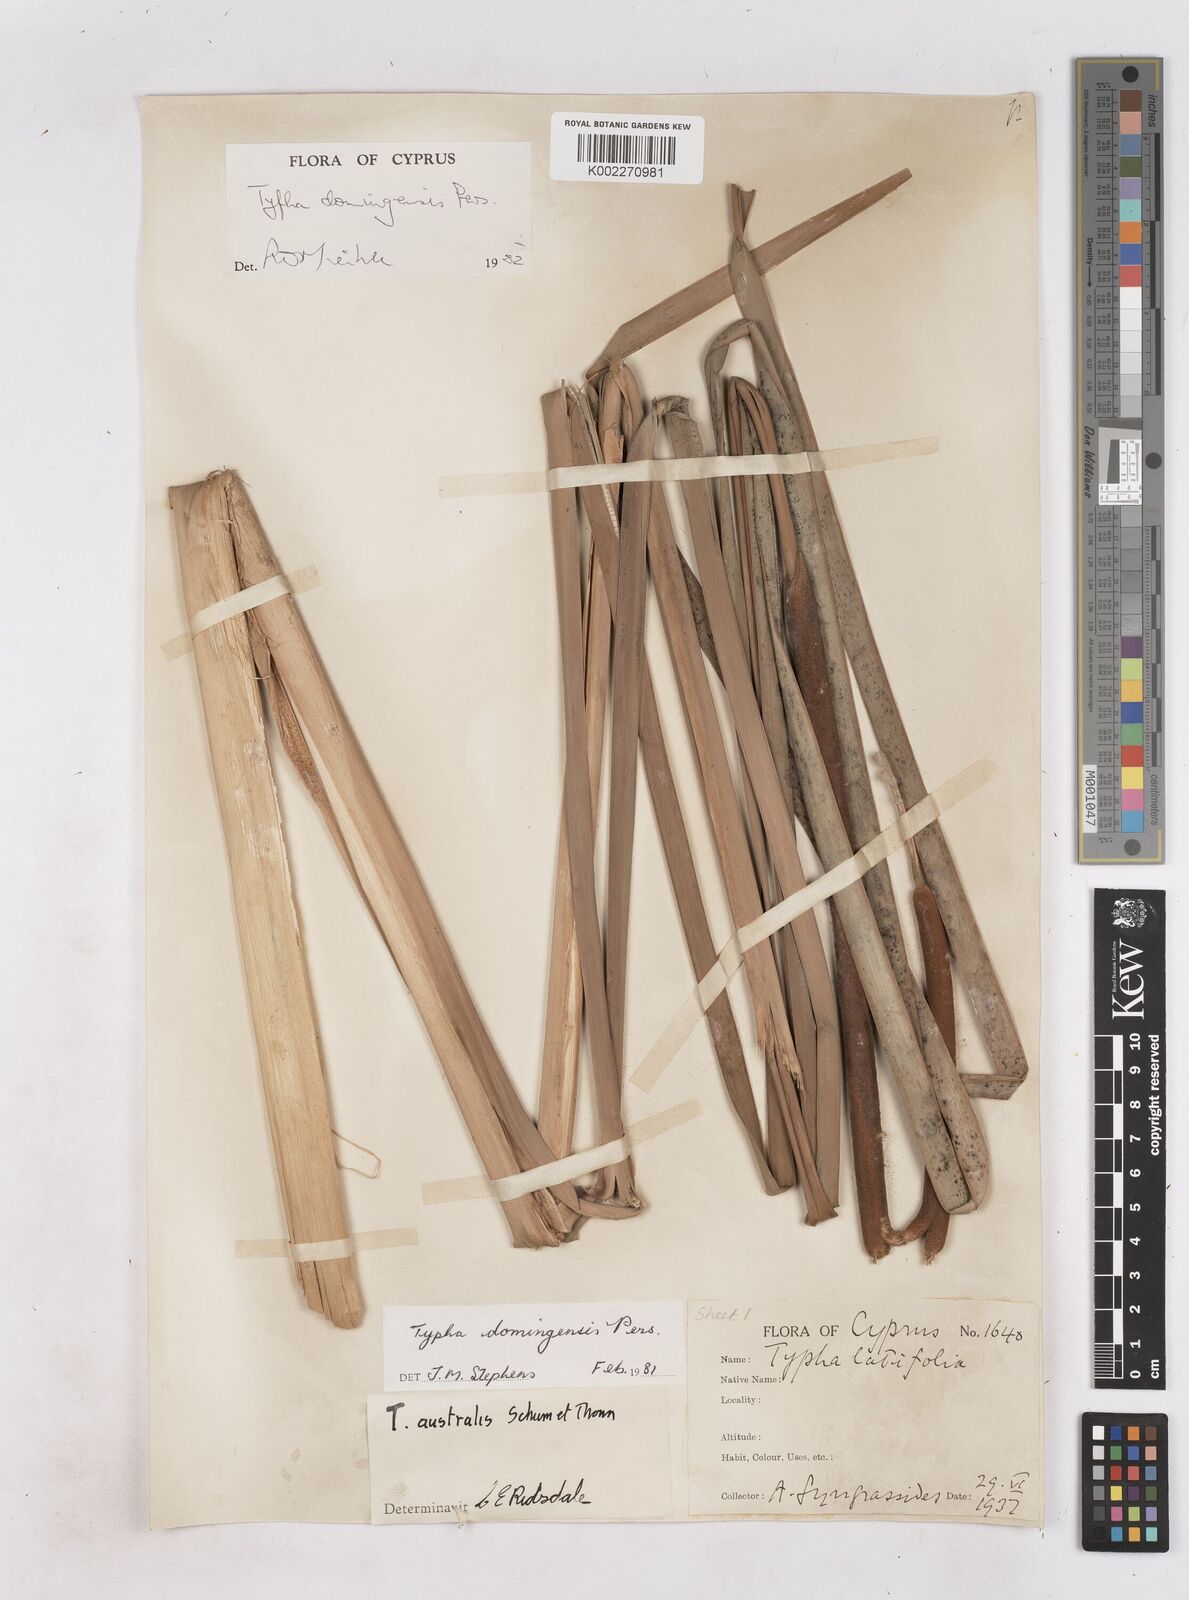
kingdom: Plantae
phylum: Tracheophyta
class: Liliopsida
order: Poales
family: Typhaceae
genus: Typha
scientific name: Typha domingensis
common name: Southern cattail
